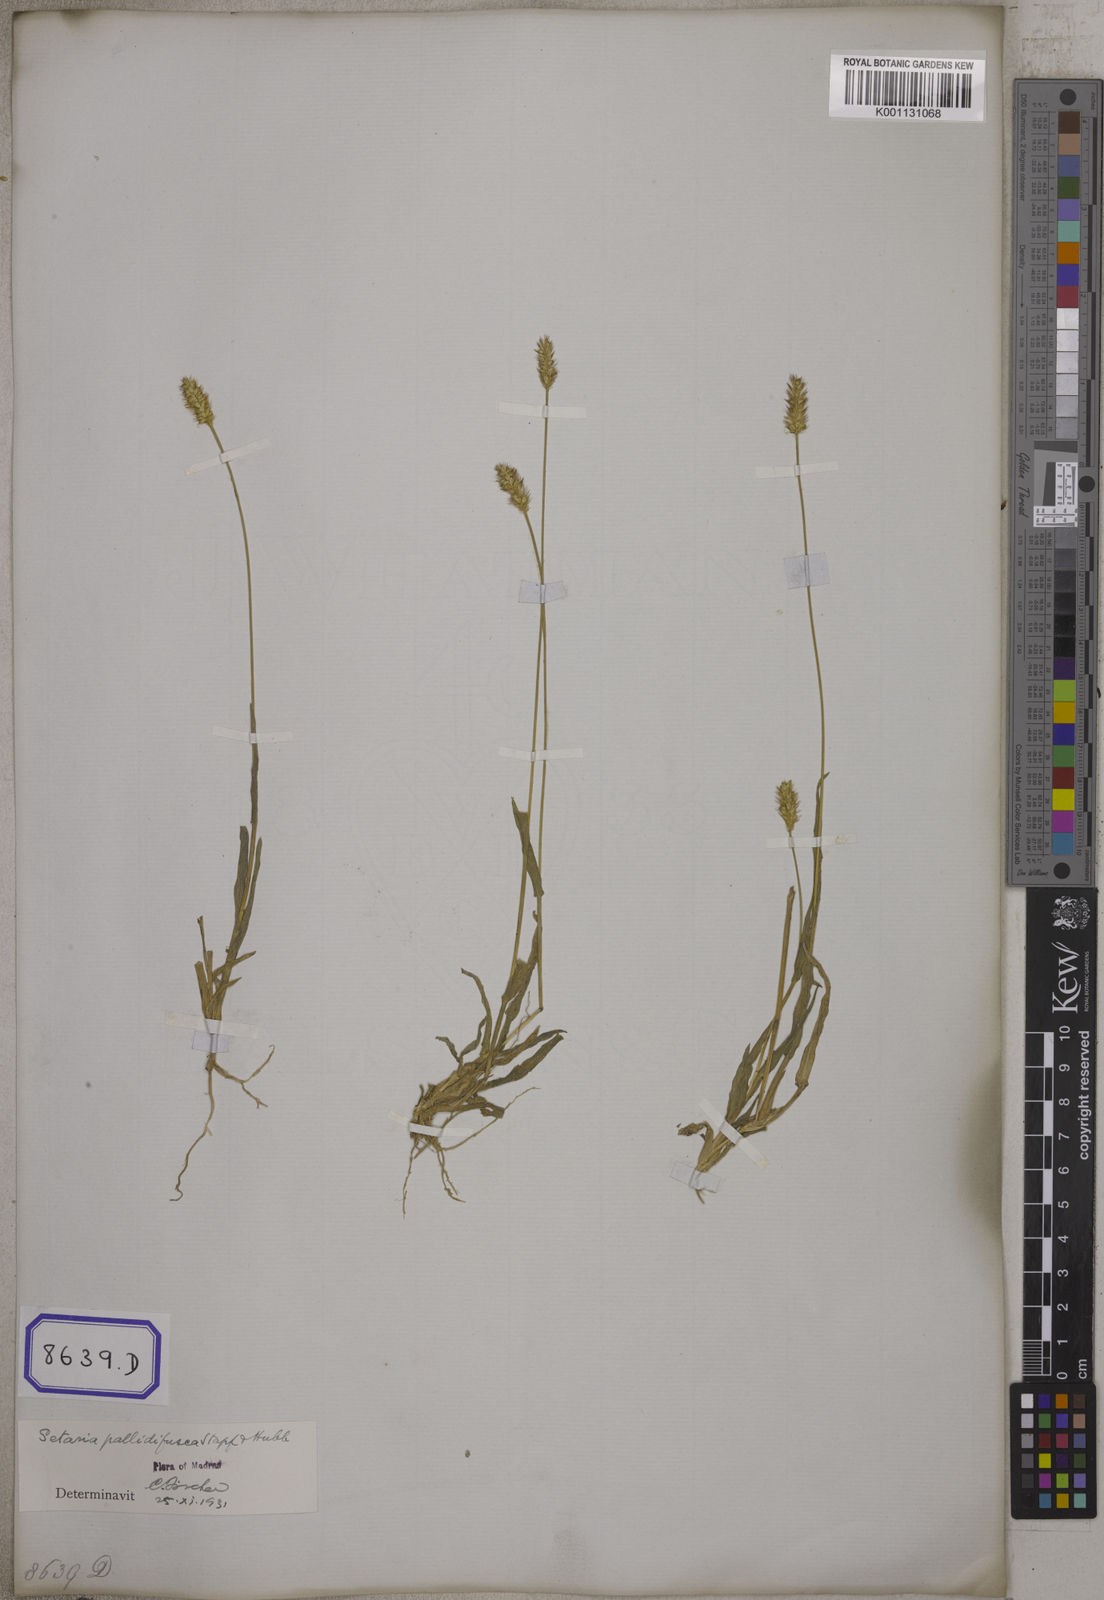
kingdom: Plantae
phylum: Tracheophyta
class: Liliopsida
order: Poales
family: Poaceae
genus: Cenchrus
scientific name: Cenchrus americanus
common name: Pearl millet
